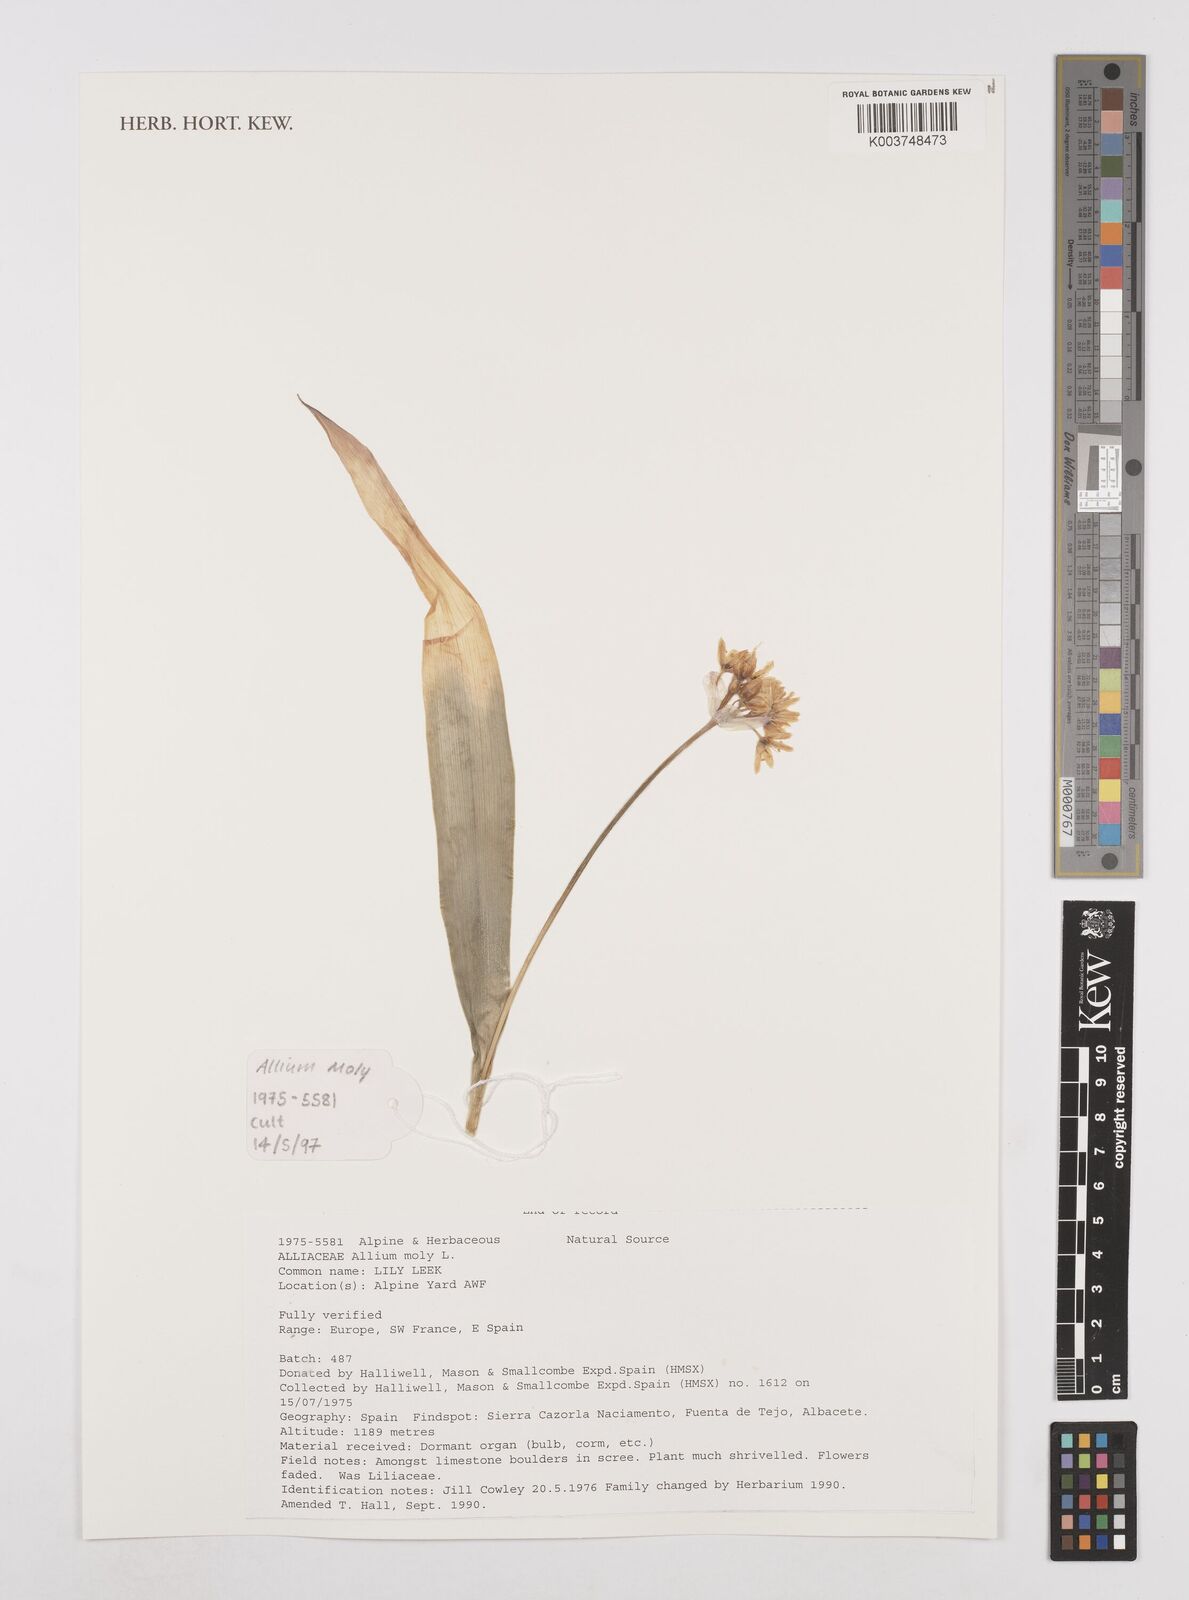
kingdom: Plantae
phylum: Tracheophyta
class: Liliopsida
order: Asparagales
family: Amaryllidaceae
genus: Allium
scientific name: Allium moly
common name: Yellow garlic
